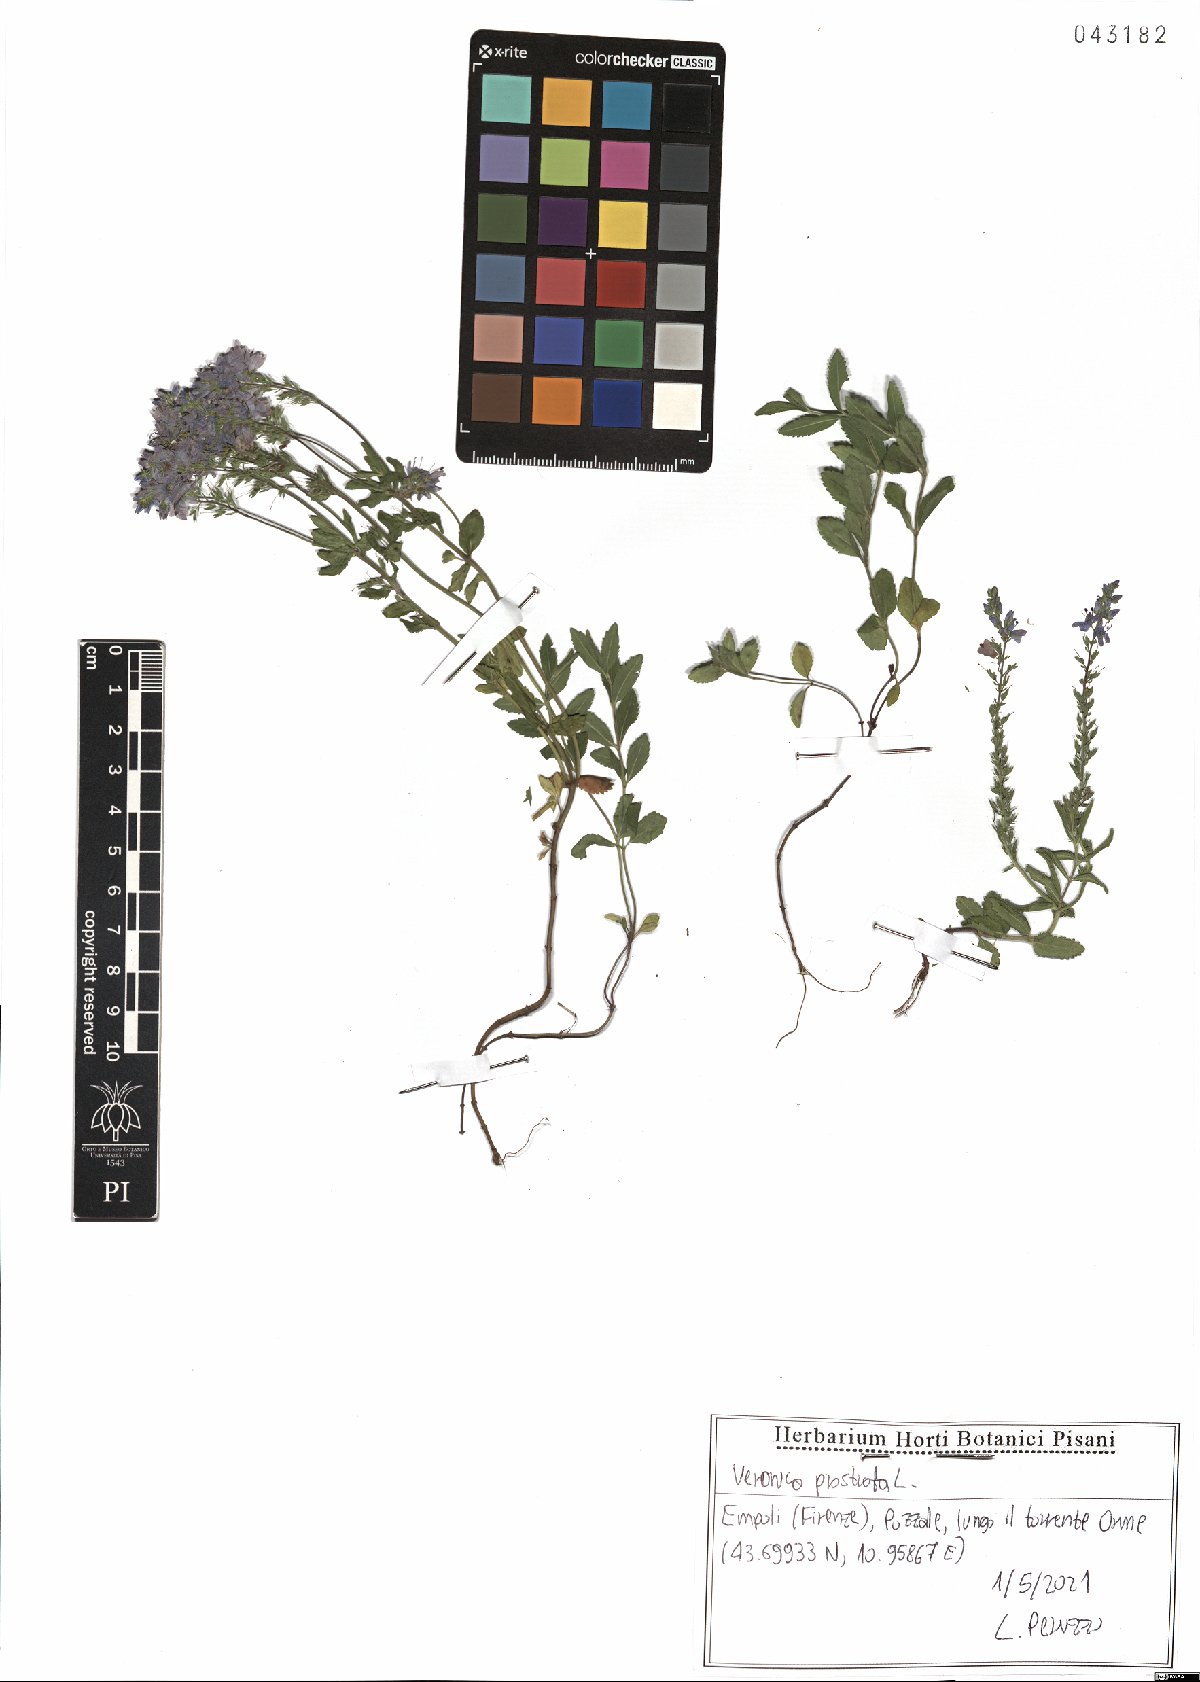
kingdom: Plantae
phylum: Tracheophyta
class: Magnoliopsida
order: Lamiales
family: Plantaginaceae
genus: Veronica
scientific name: Veronica prostrata
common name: Prostrate speedwell
